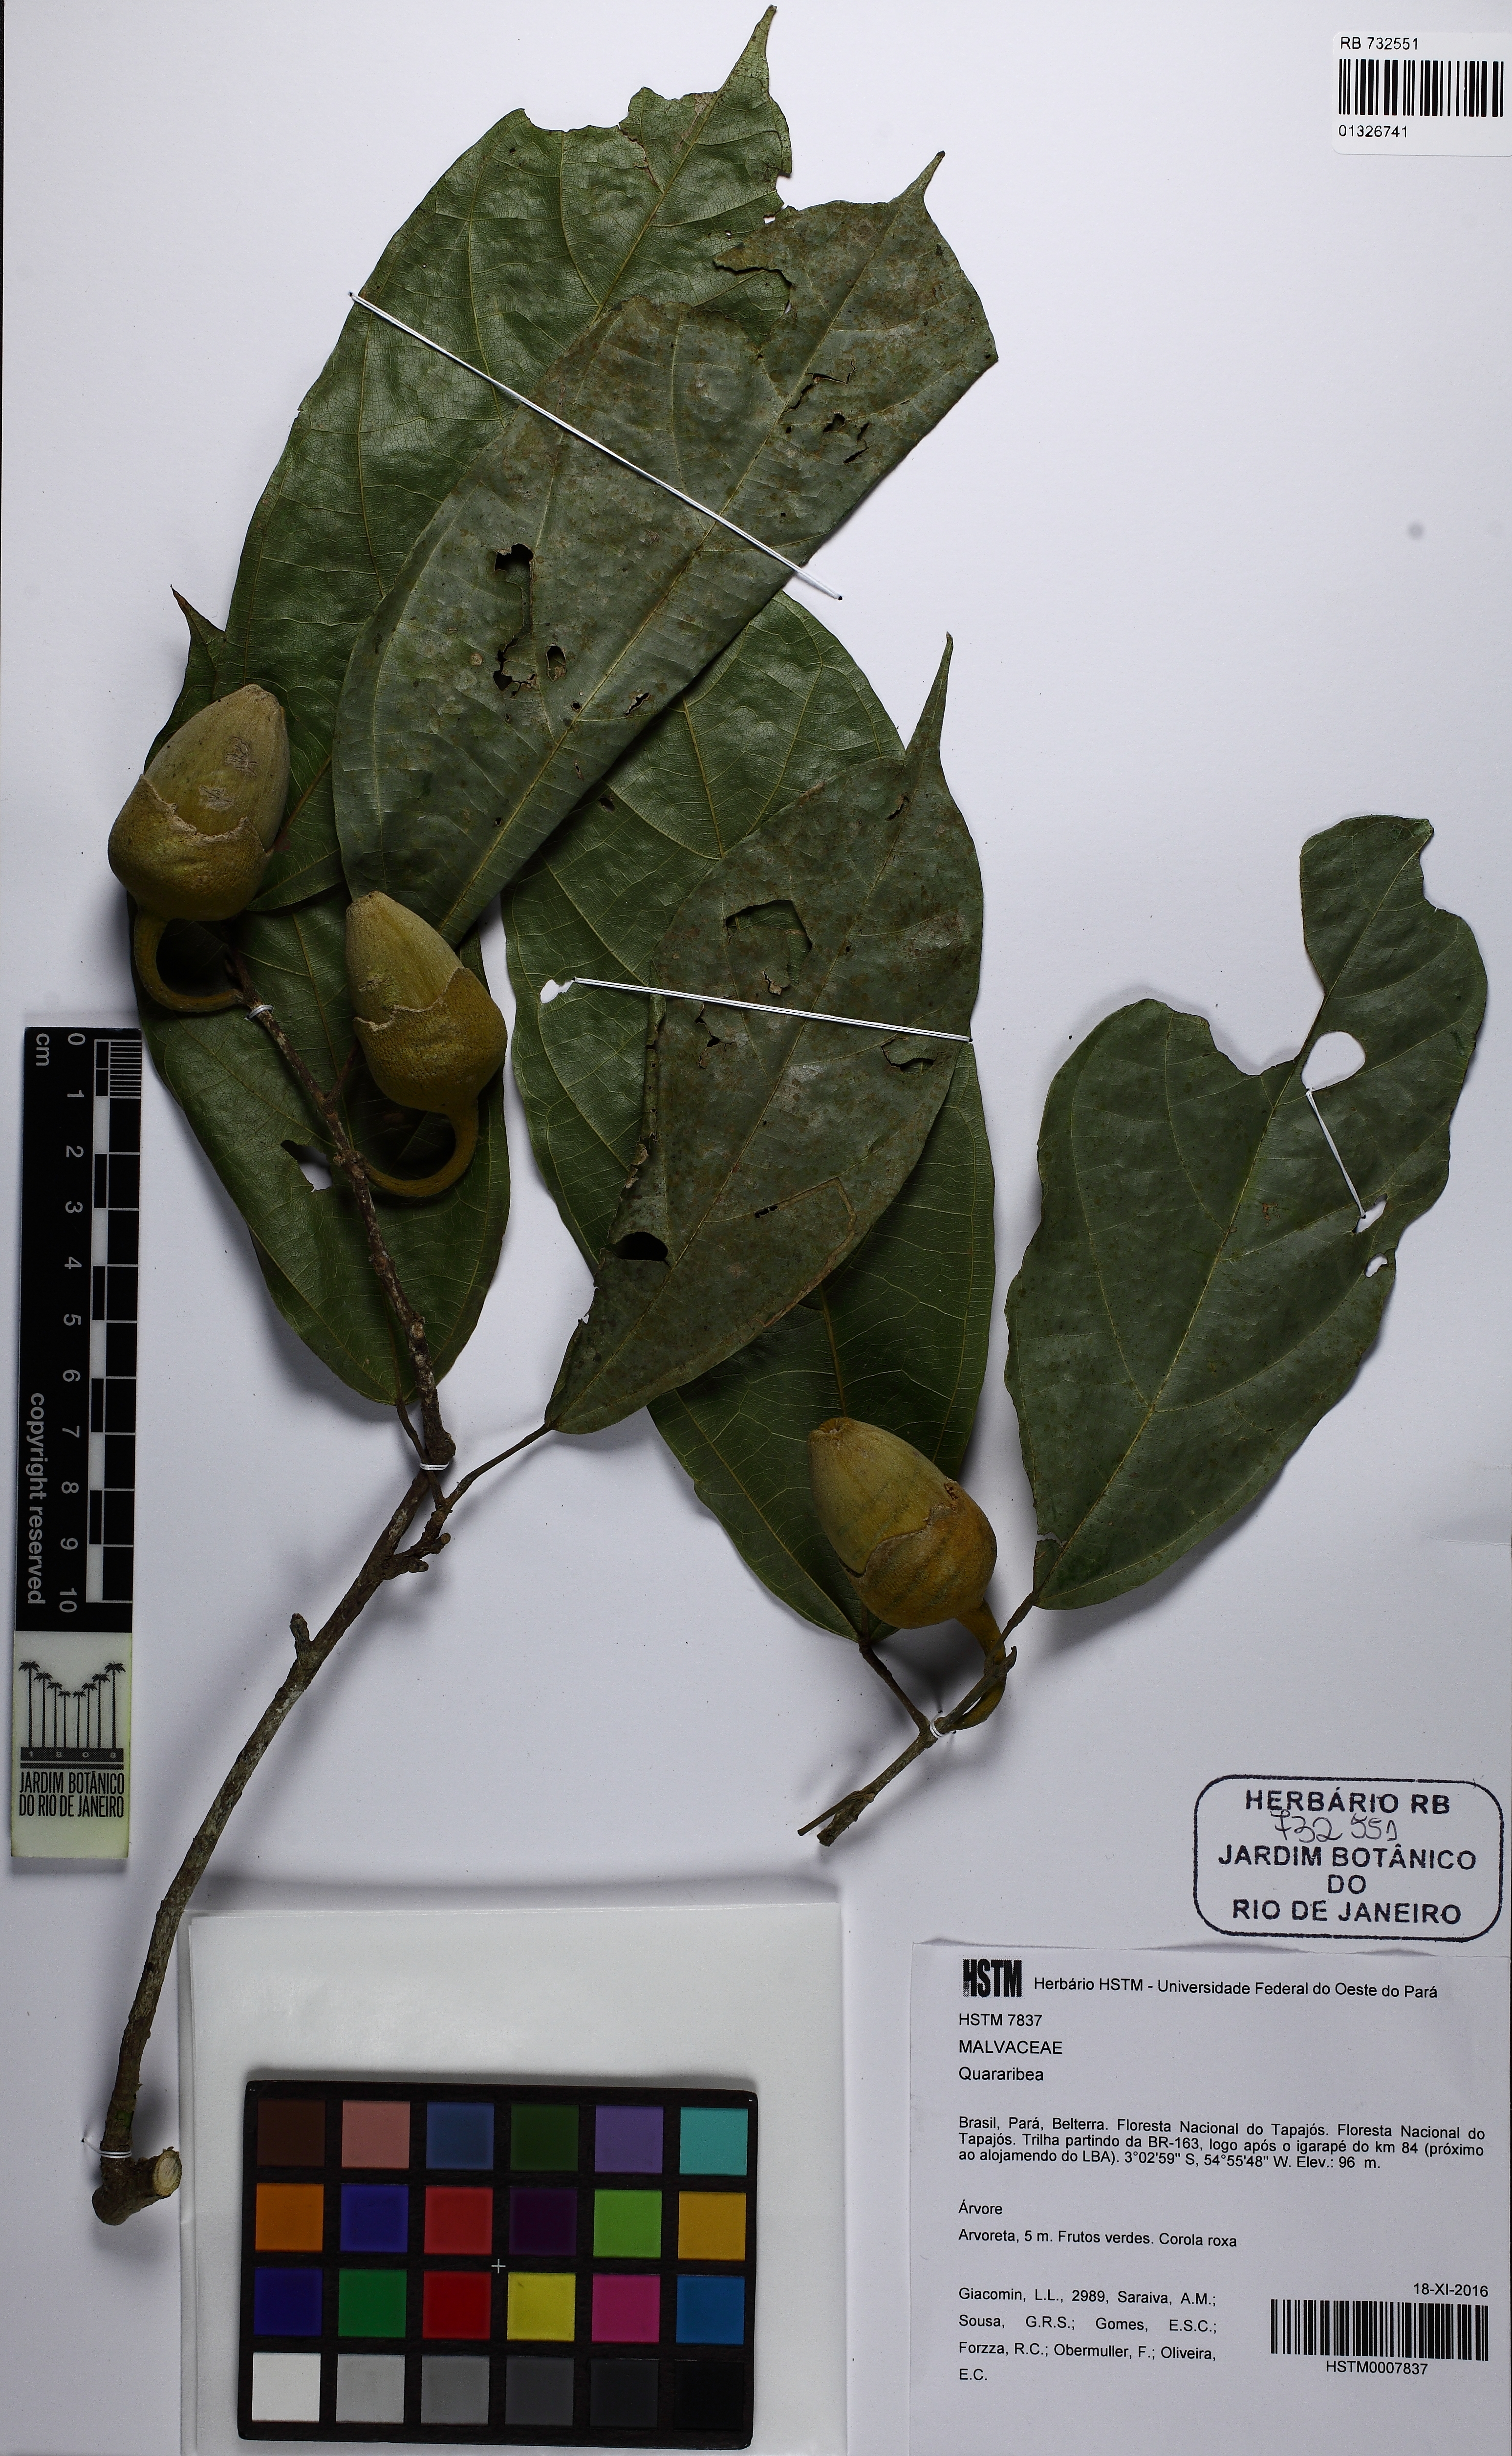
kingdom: Plantae
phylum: Tracheophyta
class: Magnoliopsida
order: Malvales
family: Malvaceae
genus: Matisia
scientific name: Matisia ochrocalyx
